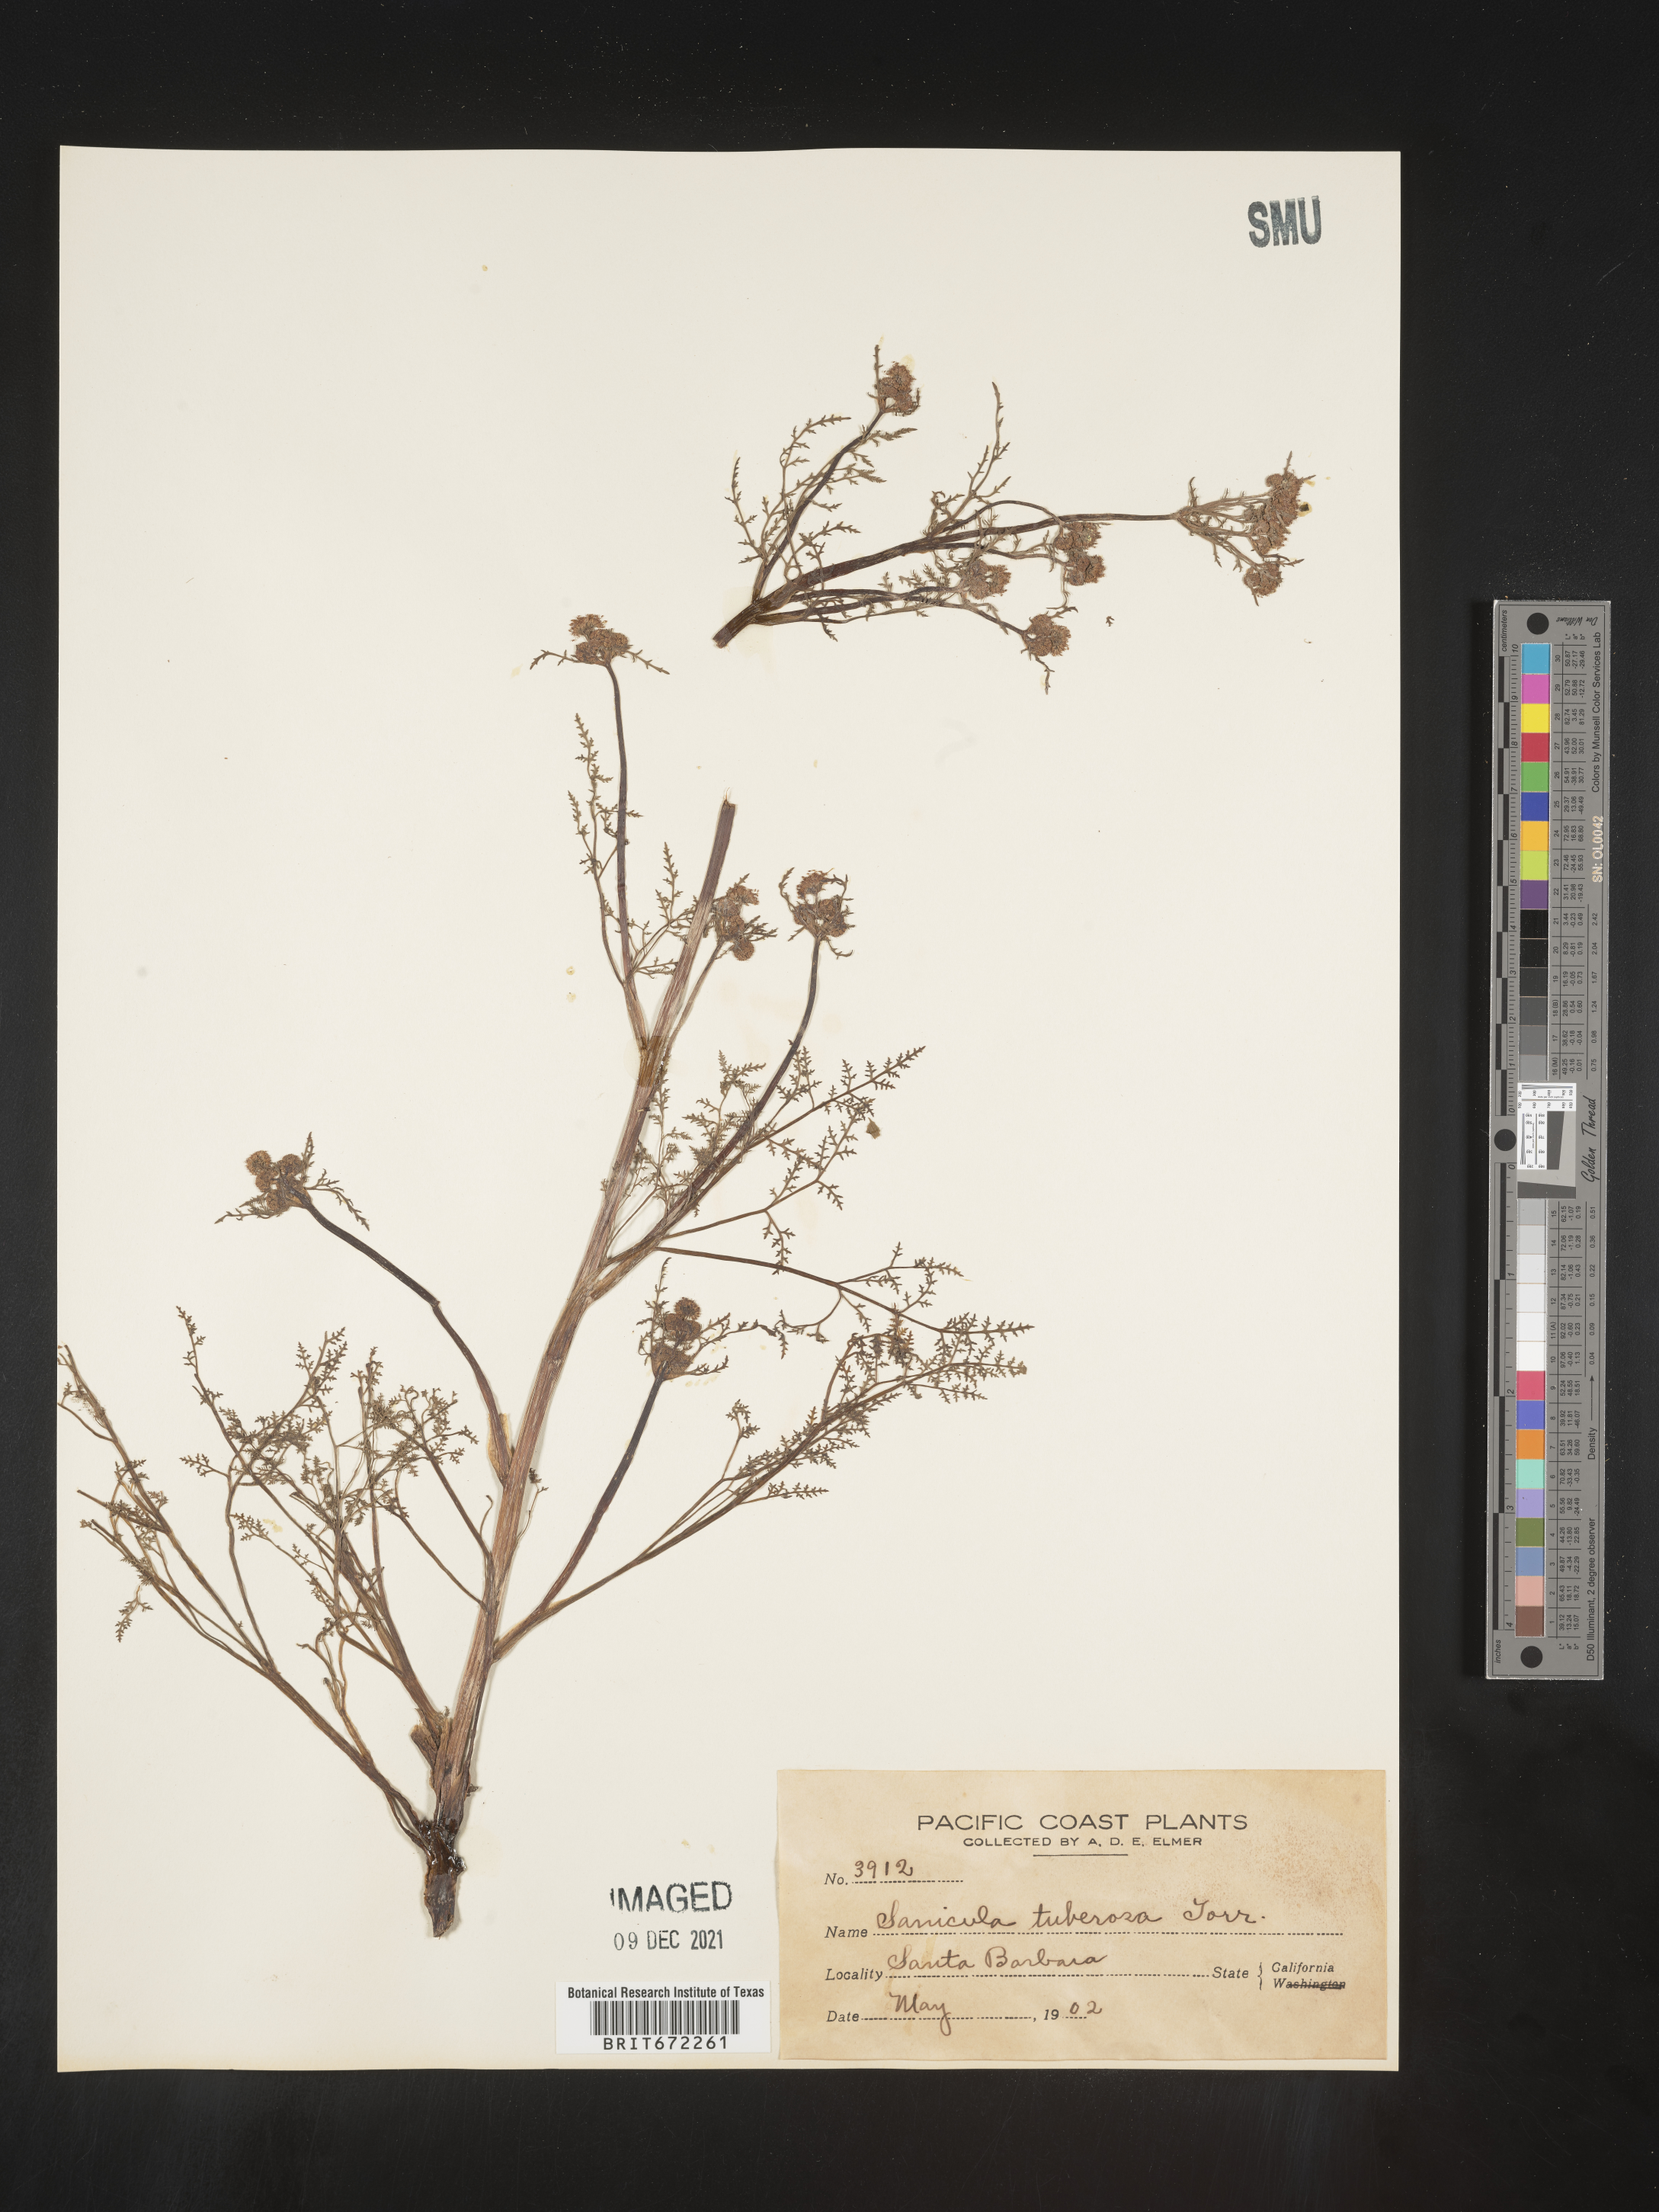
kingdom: Plantae
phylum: Tracheophyta
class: Magnoliopsida
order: Apiales
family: Apiaceae
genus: Sanicula
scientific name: Sanicula
